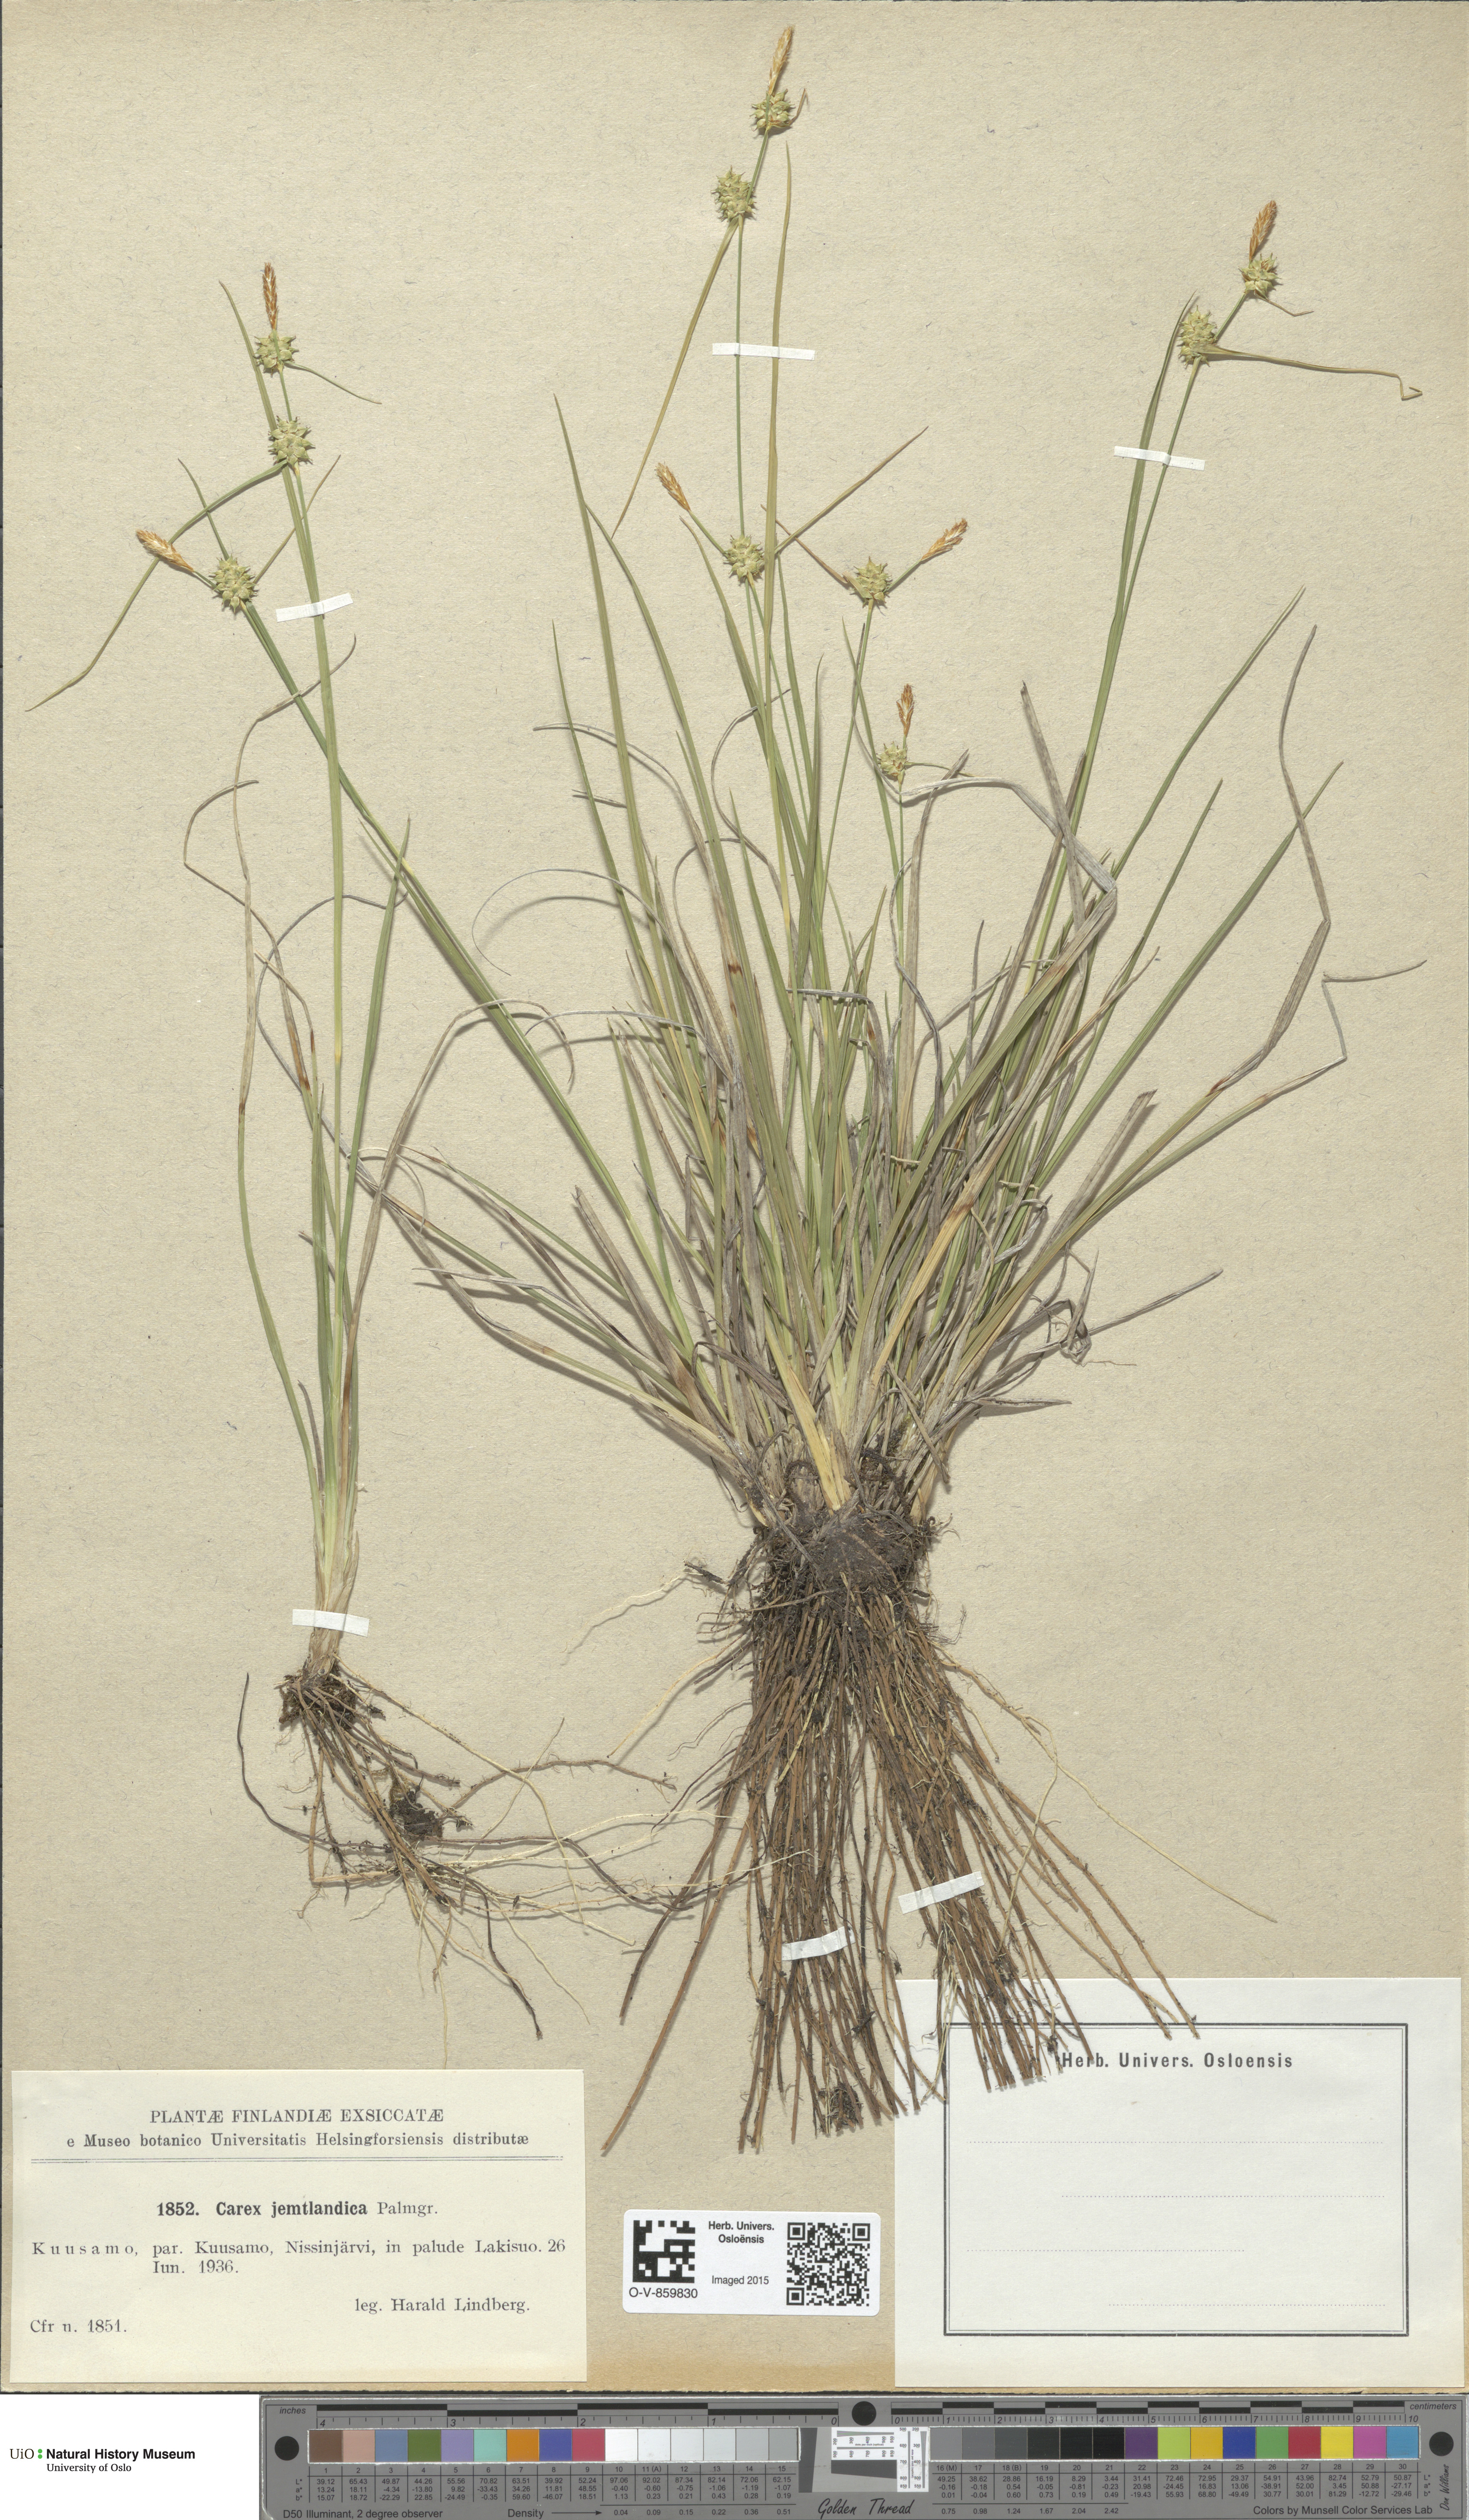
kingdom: Plantae
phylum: Tracheophyta
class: Liliopsida
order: Poales
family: Cyperaceae
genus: Carex
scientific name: Carex lepidocarpa
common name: Long-stalked yellow-sedge
